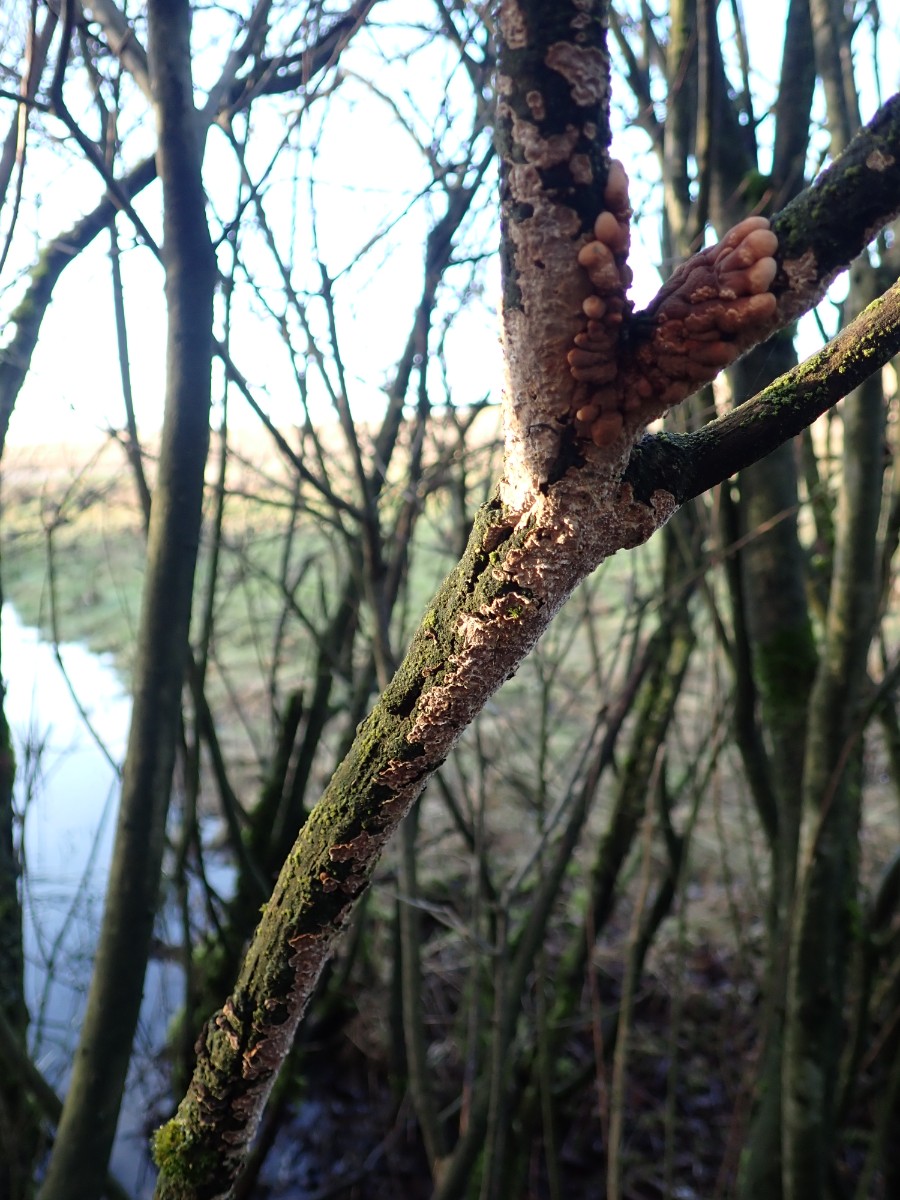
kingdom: Fungi
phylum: Basidiomycota
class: Agaricomycetes
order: Hymenochaetales
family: Hymenochaetaceae
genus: Hydnoporia
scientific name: Hydnoporia tabacina
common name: tobaksbrun ruslædersvamp
